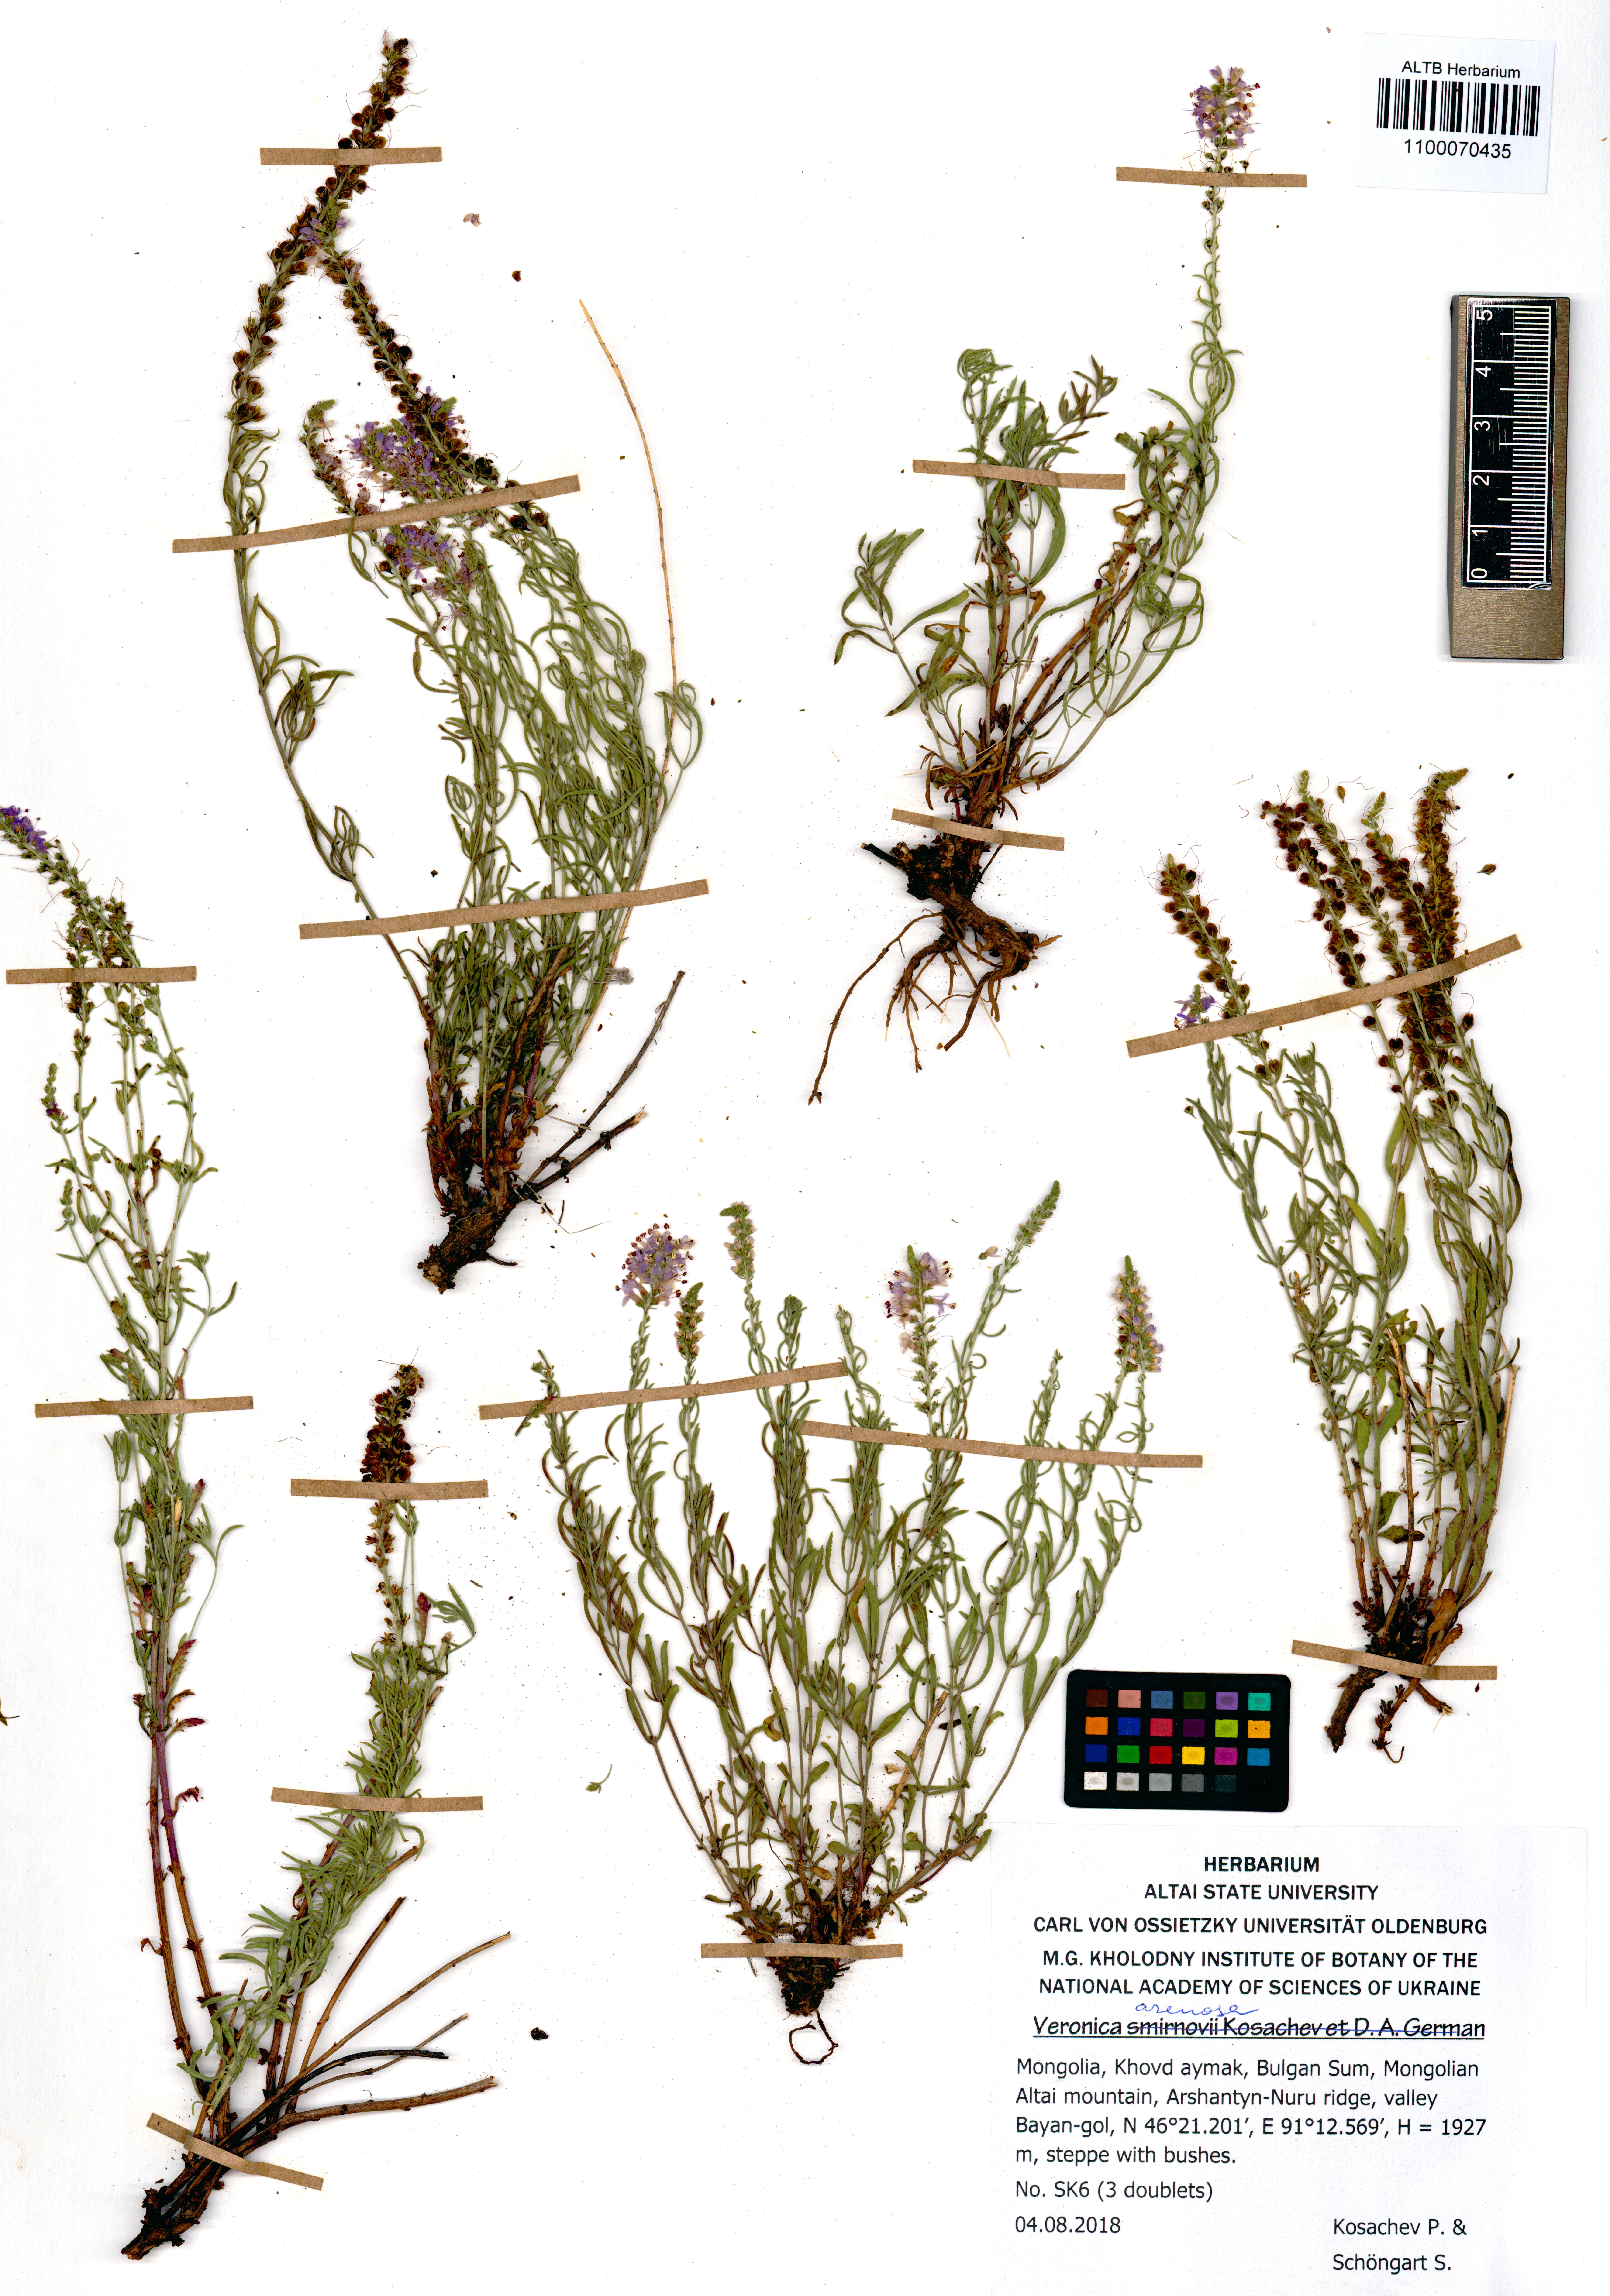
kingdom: Plantae
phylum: Tracheophyta
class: Magnoliopsida
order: Lamiales
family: Plantaginaceae
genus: Veronica
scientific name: Veronica arenosa
